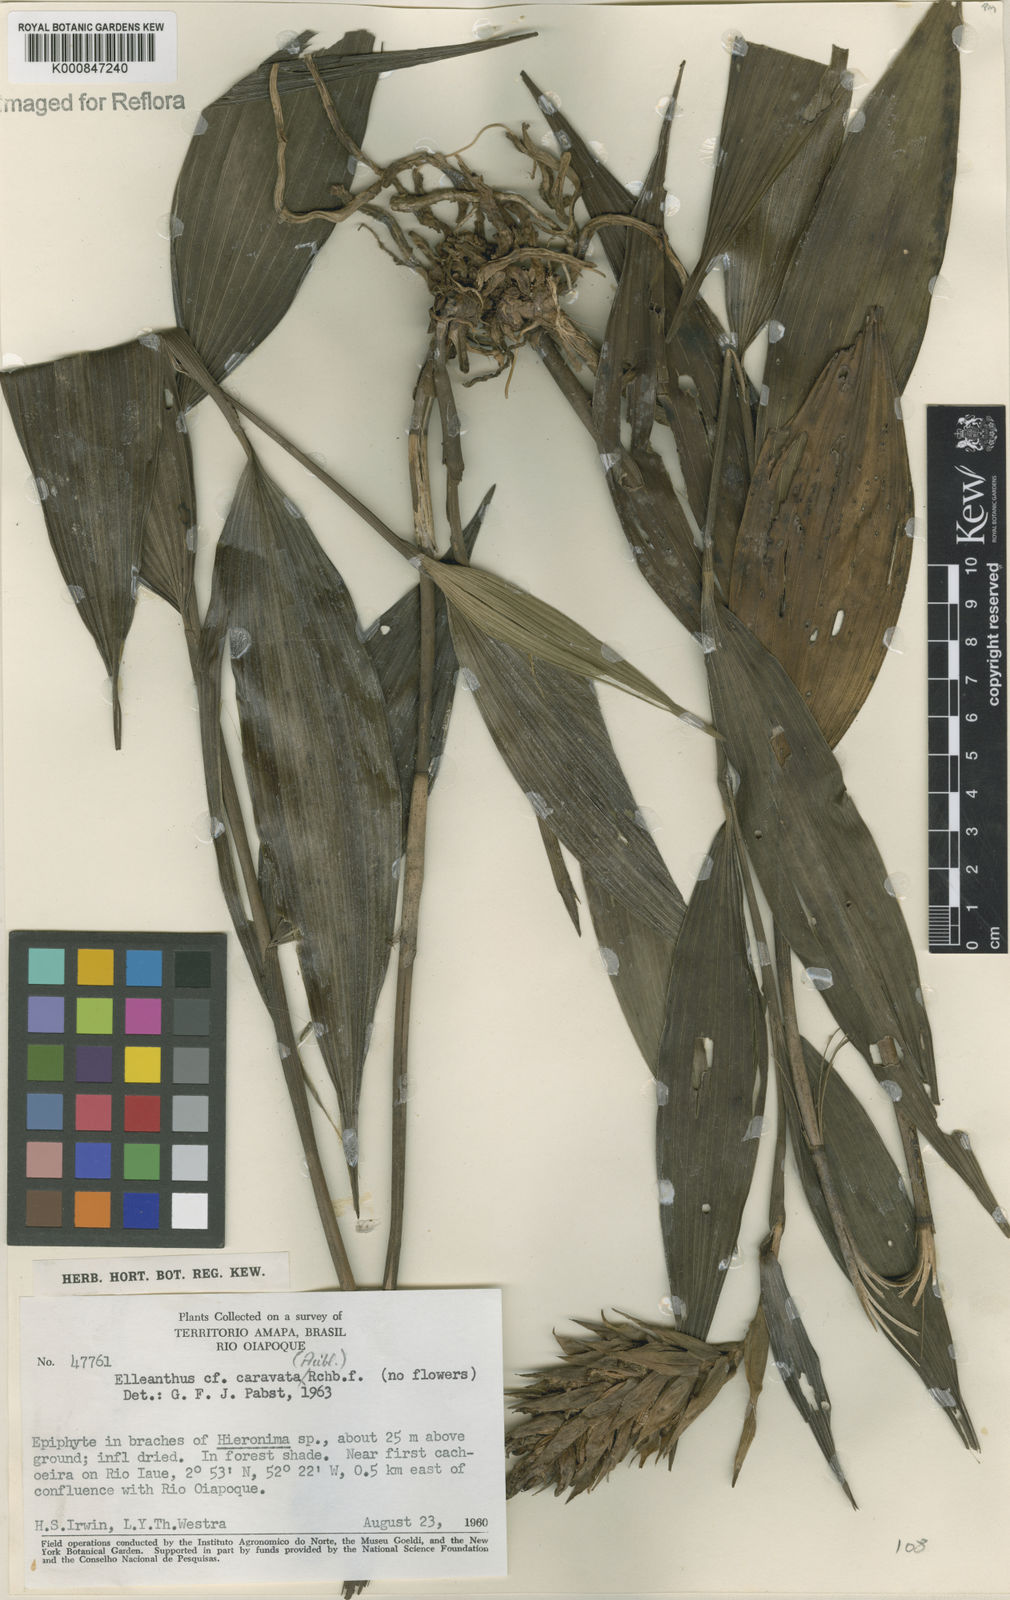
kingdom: Plantae
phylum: Tracheophyta
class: Liliopsida
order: Asparagales
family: Orchidaceae
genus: Elleanthus
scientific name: Elleanthus caravata
